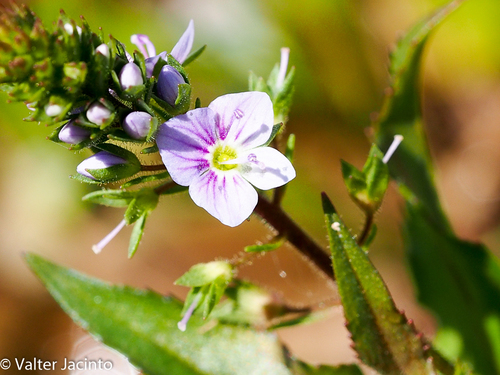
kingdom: Plantae
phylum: Tracheophyta
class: Magnoliopsida
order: Lamiales
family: Plantaginaceae
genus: Veronica
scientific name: Veronica anagallis-aquatica
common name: Water speedwell
